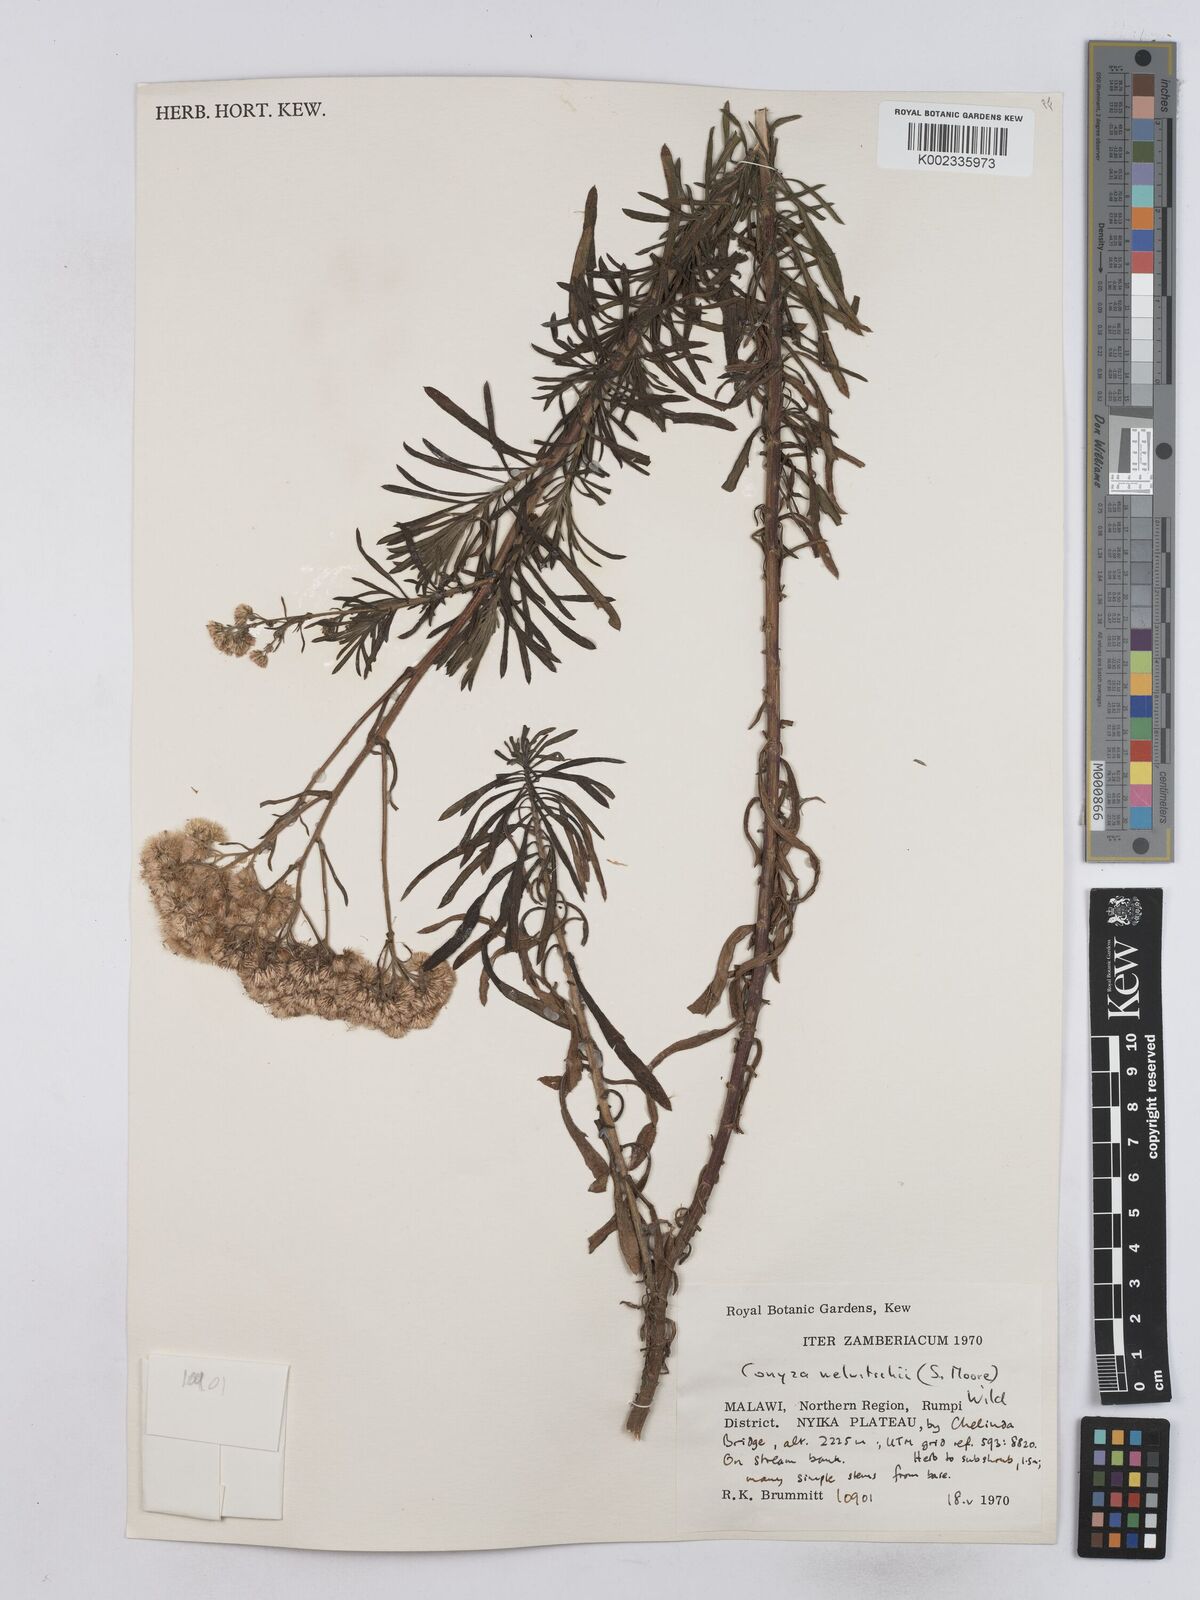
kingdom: Plantae
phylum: Tracheophyta
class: Magnoliopsida
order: Asterales
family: Asteraceae
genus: Nidorella
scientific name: Nidorella welwitschii
